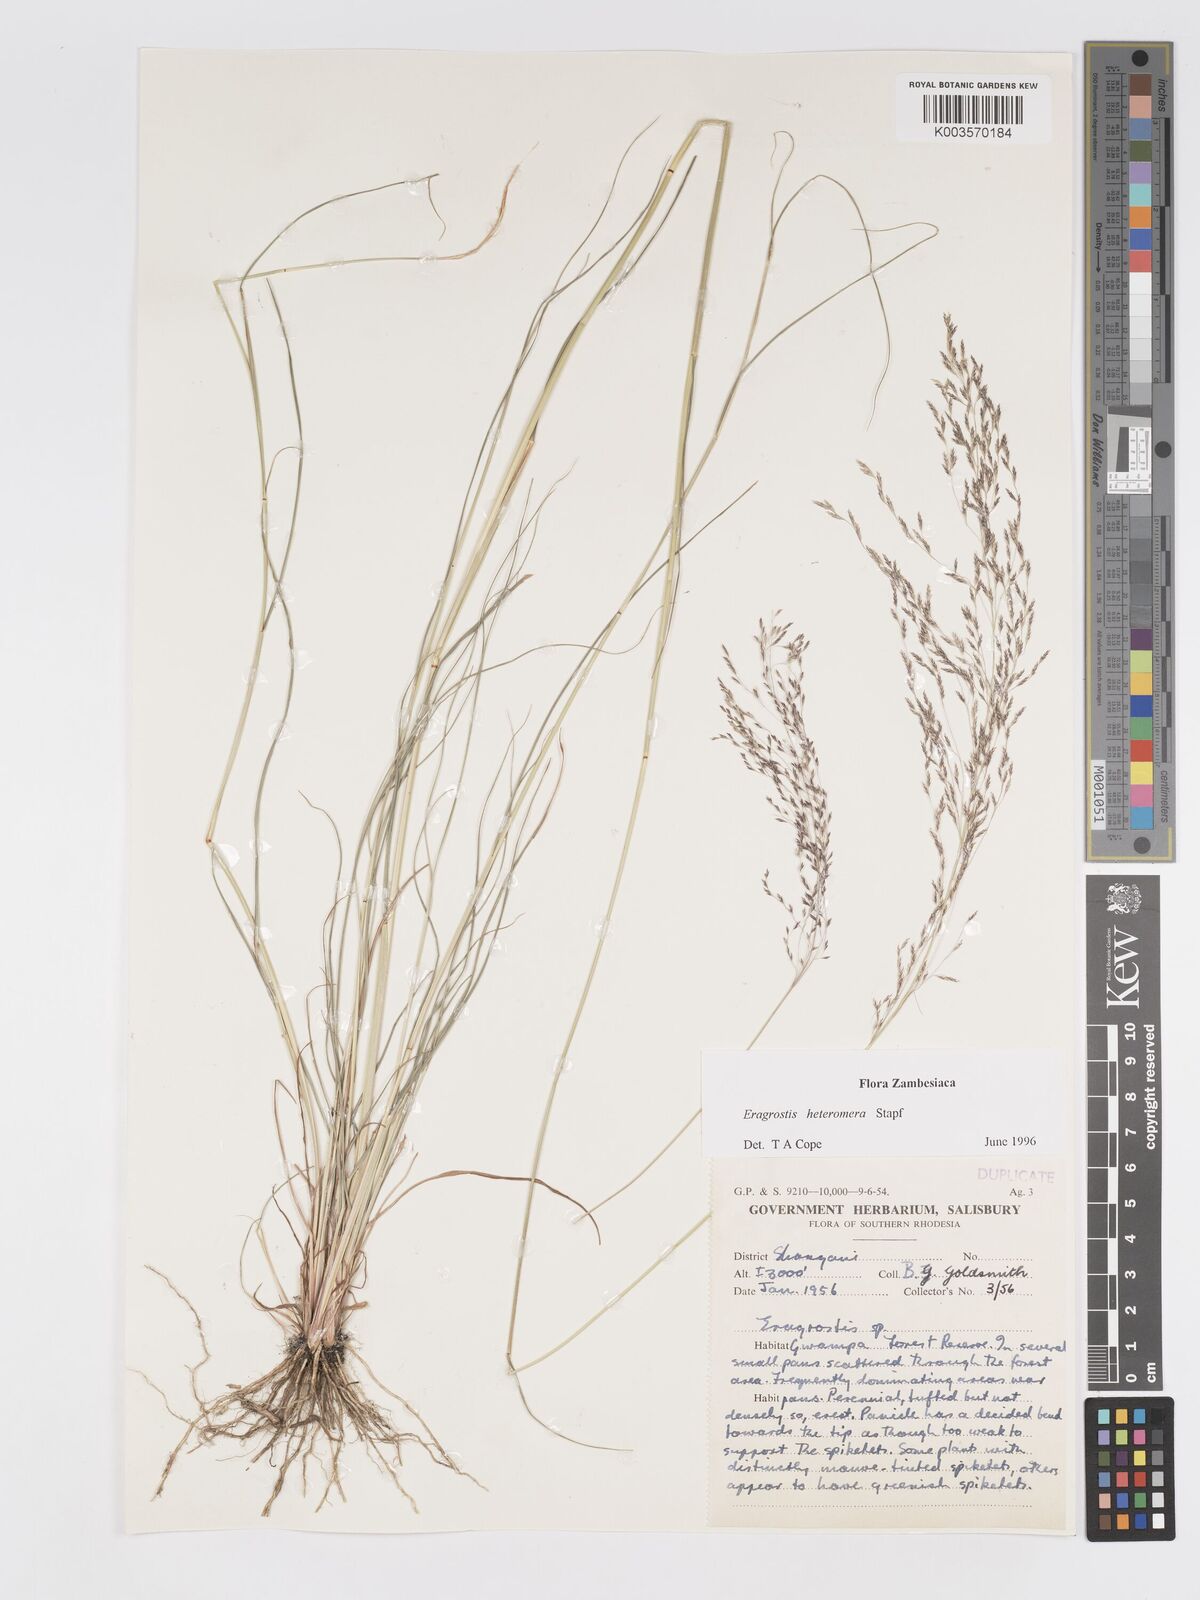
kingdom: Plantae
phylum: Tracheophyta
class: Liliopsida
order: Poales
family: Poaceae
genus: Eragrostis
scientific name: Eragrostis heteromera
